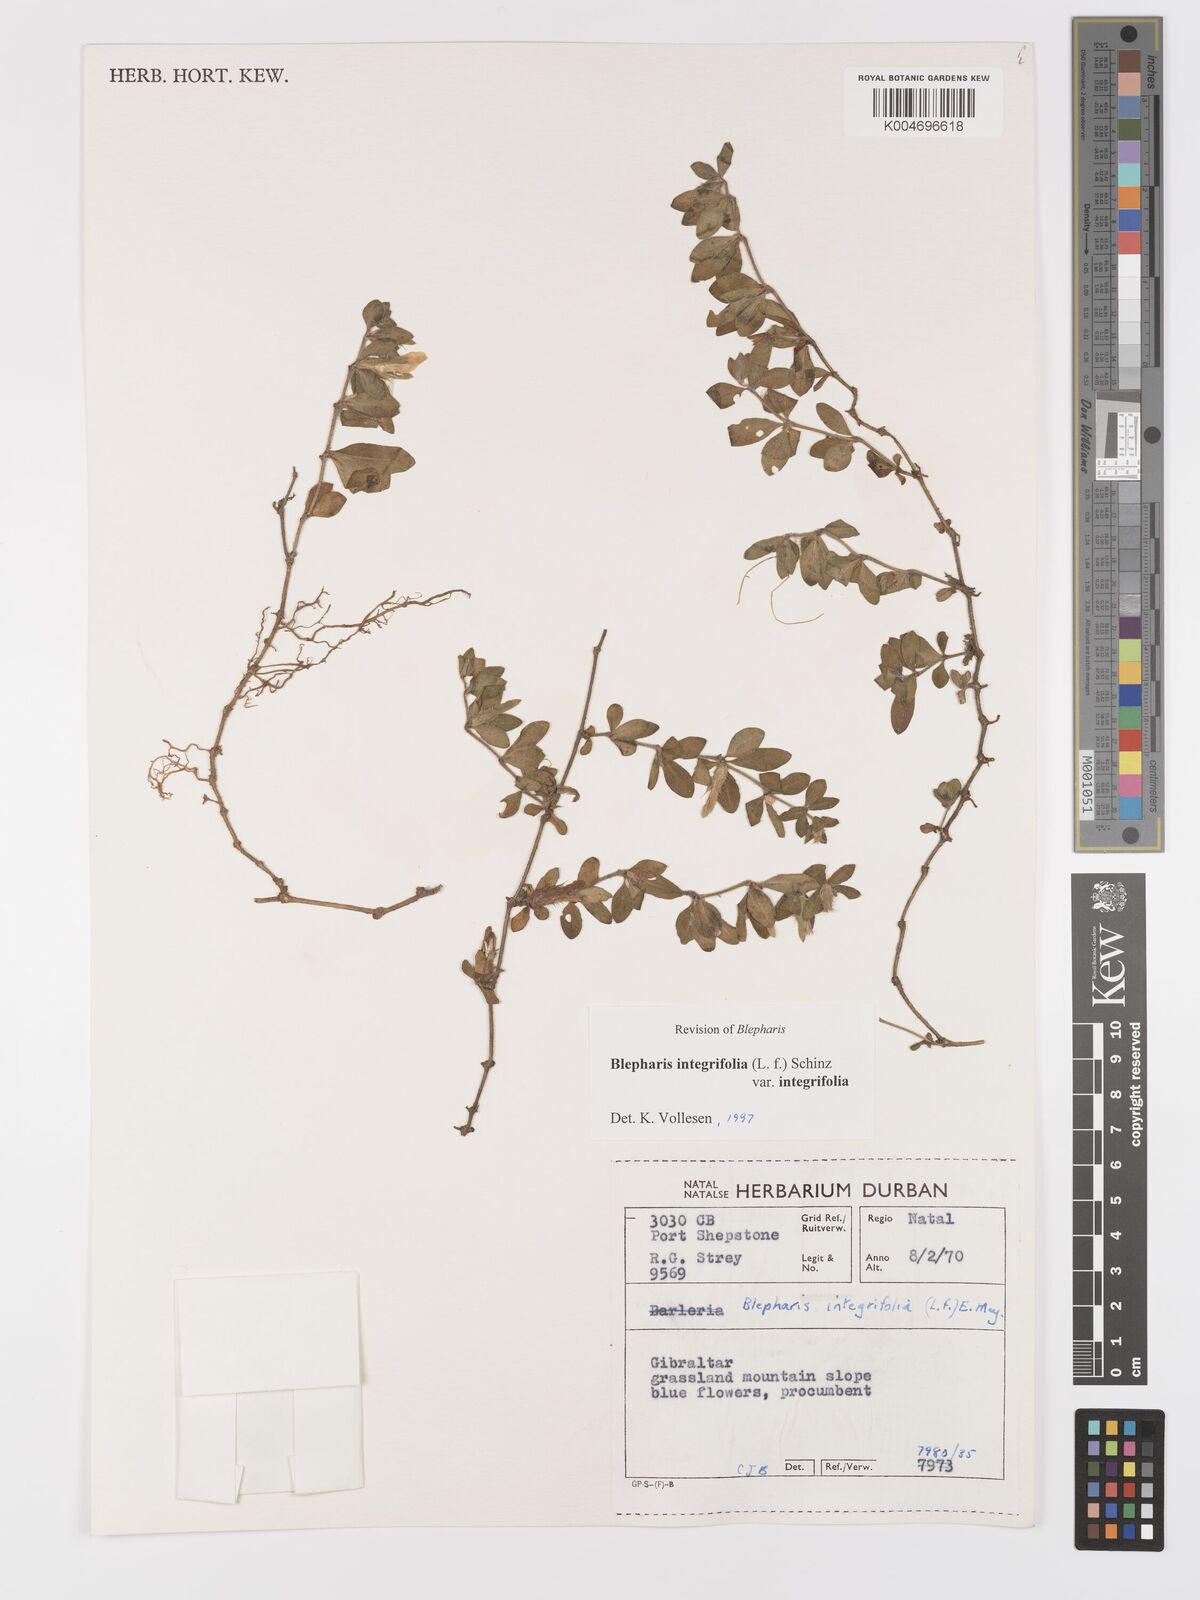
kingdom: Plantae
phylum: Tracheophyta
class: Magnoliopsida
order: Lamiales
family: Acanthaceae
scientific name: Acanthaceae
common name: Acanthaceae
